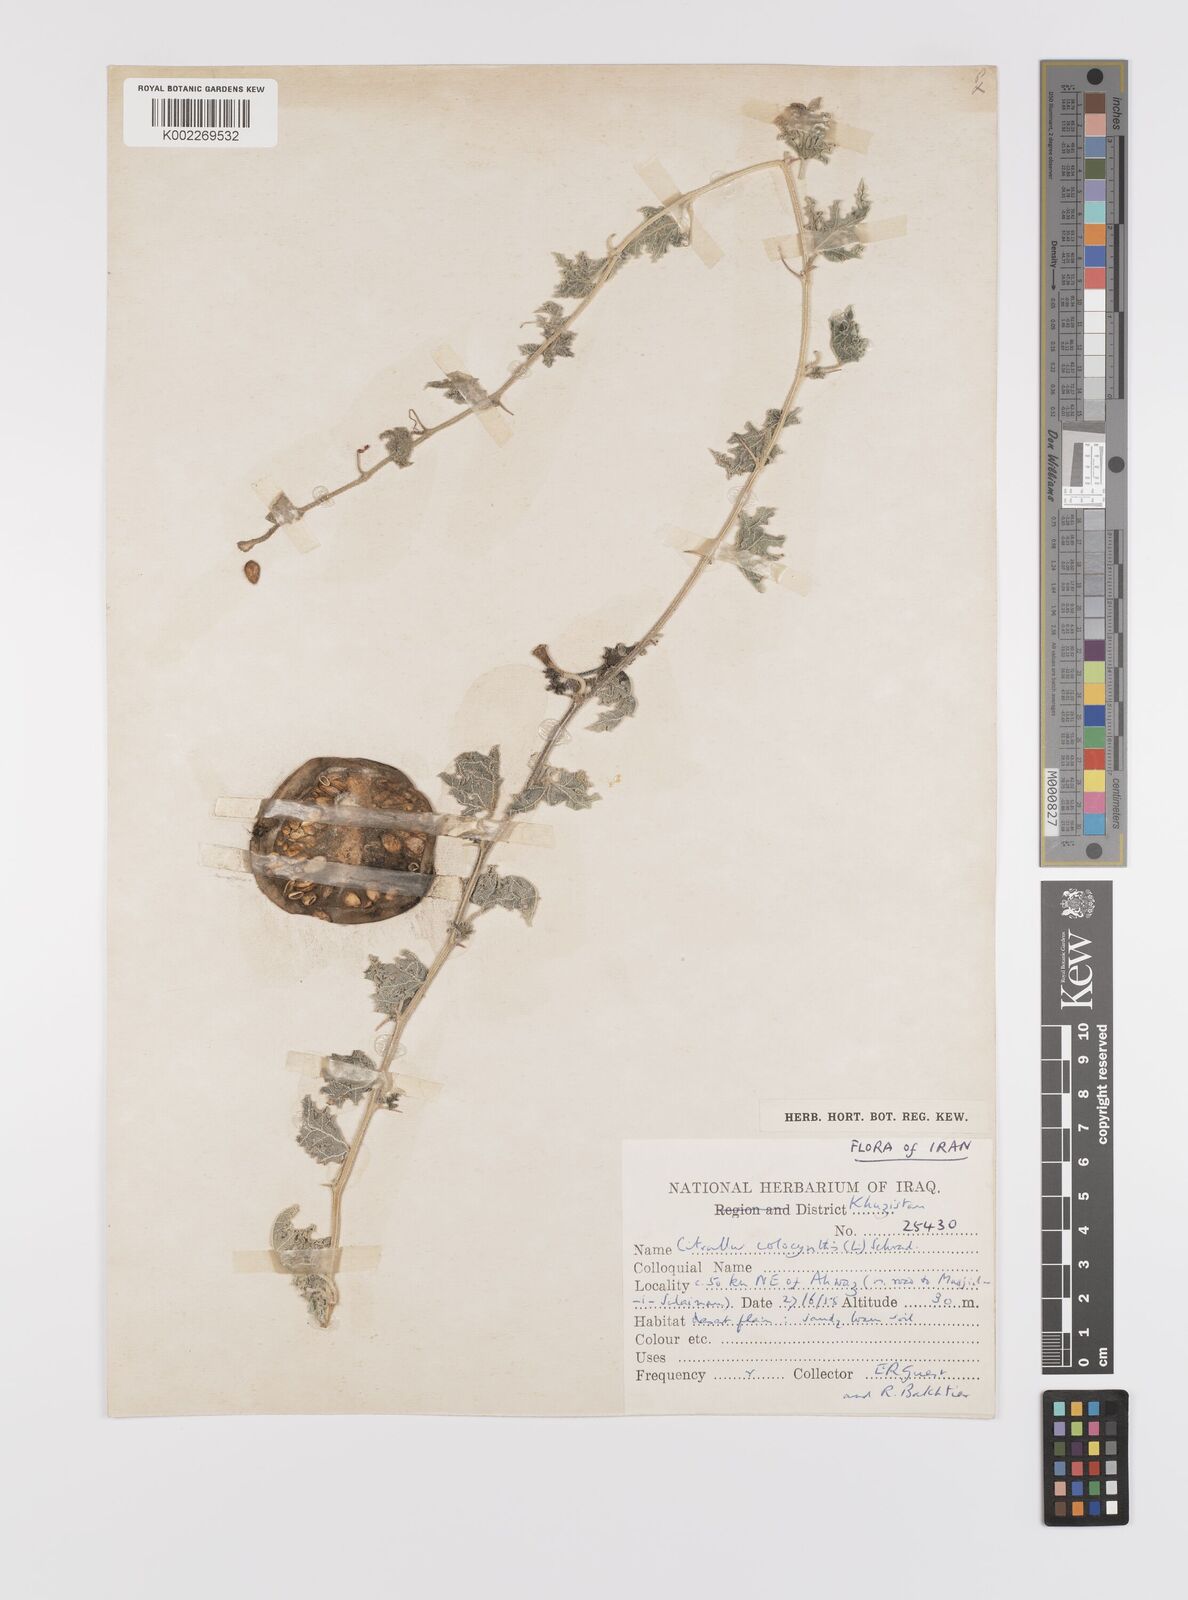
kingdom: Plantae
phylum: Tracheophyta
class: Magnoliopsida
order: Cucurbitales
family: Cucurbitaceae
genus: Citrullus
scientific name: Citrullus colocynthis
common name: Colocynth
